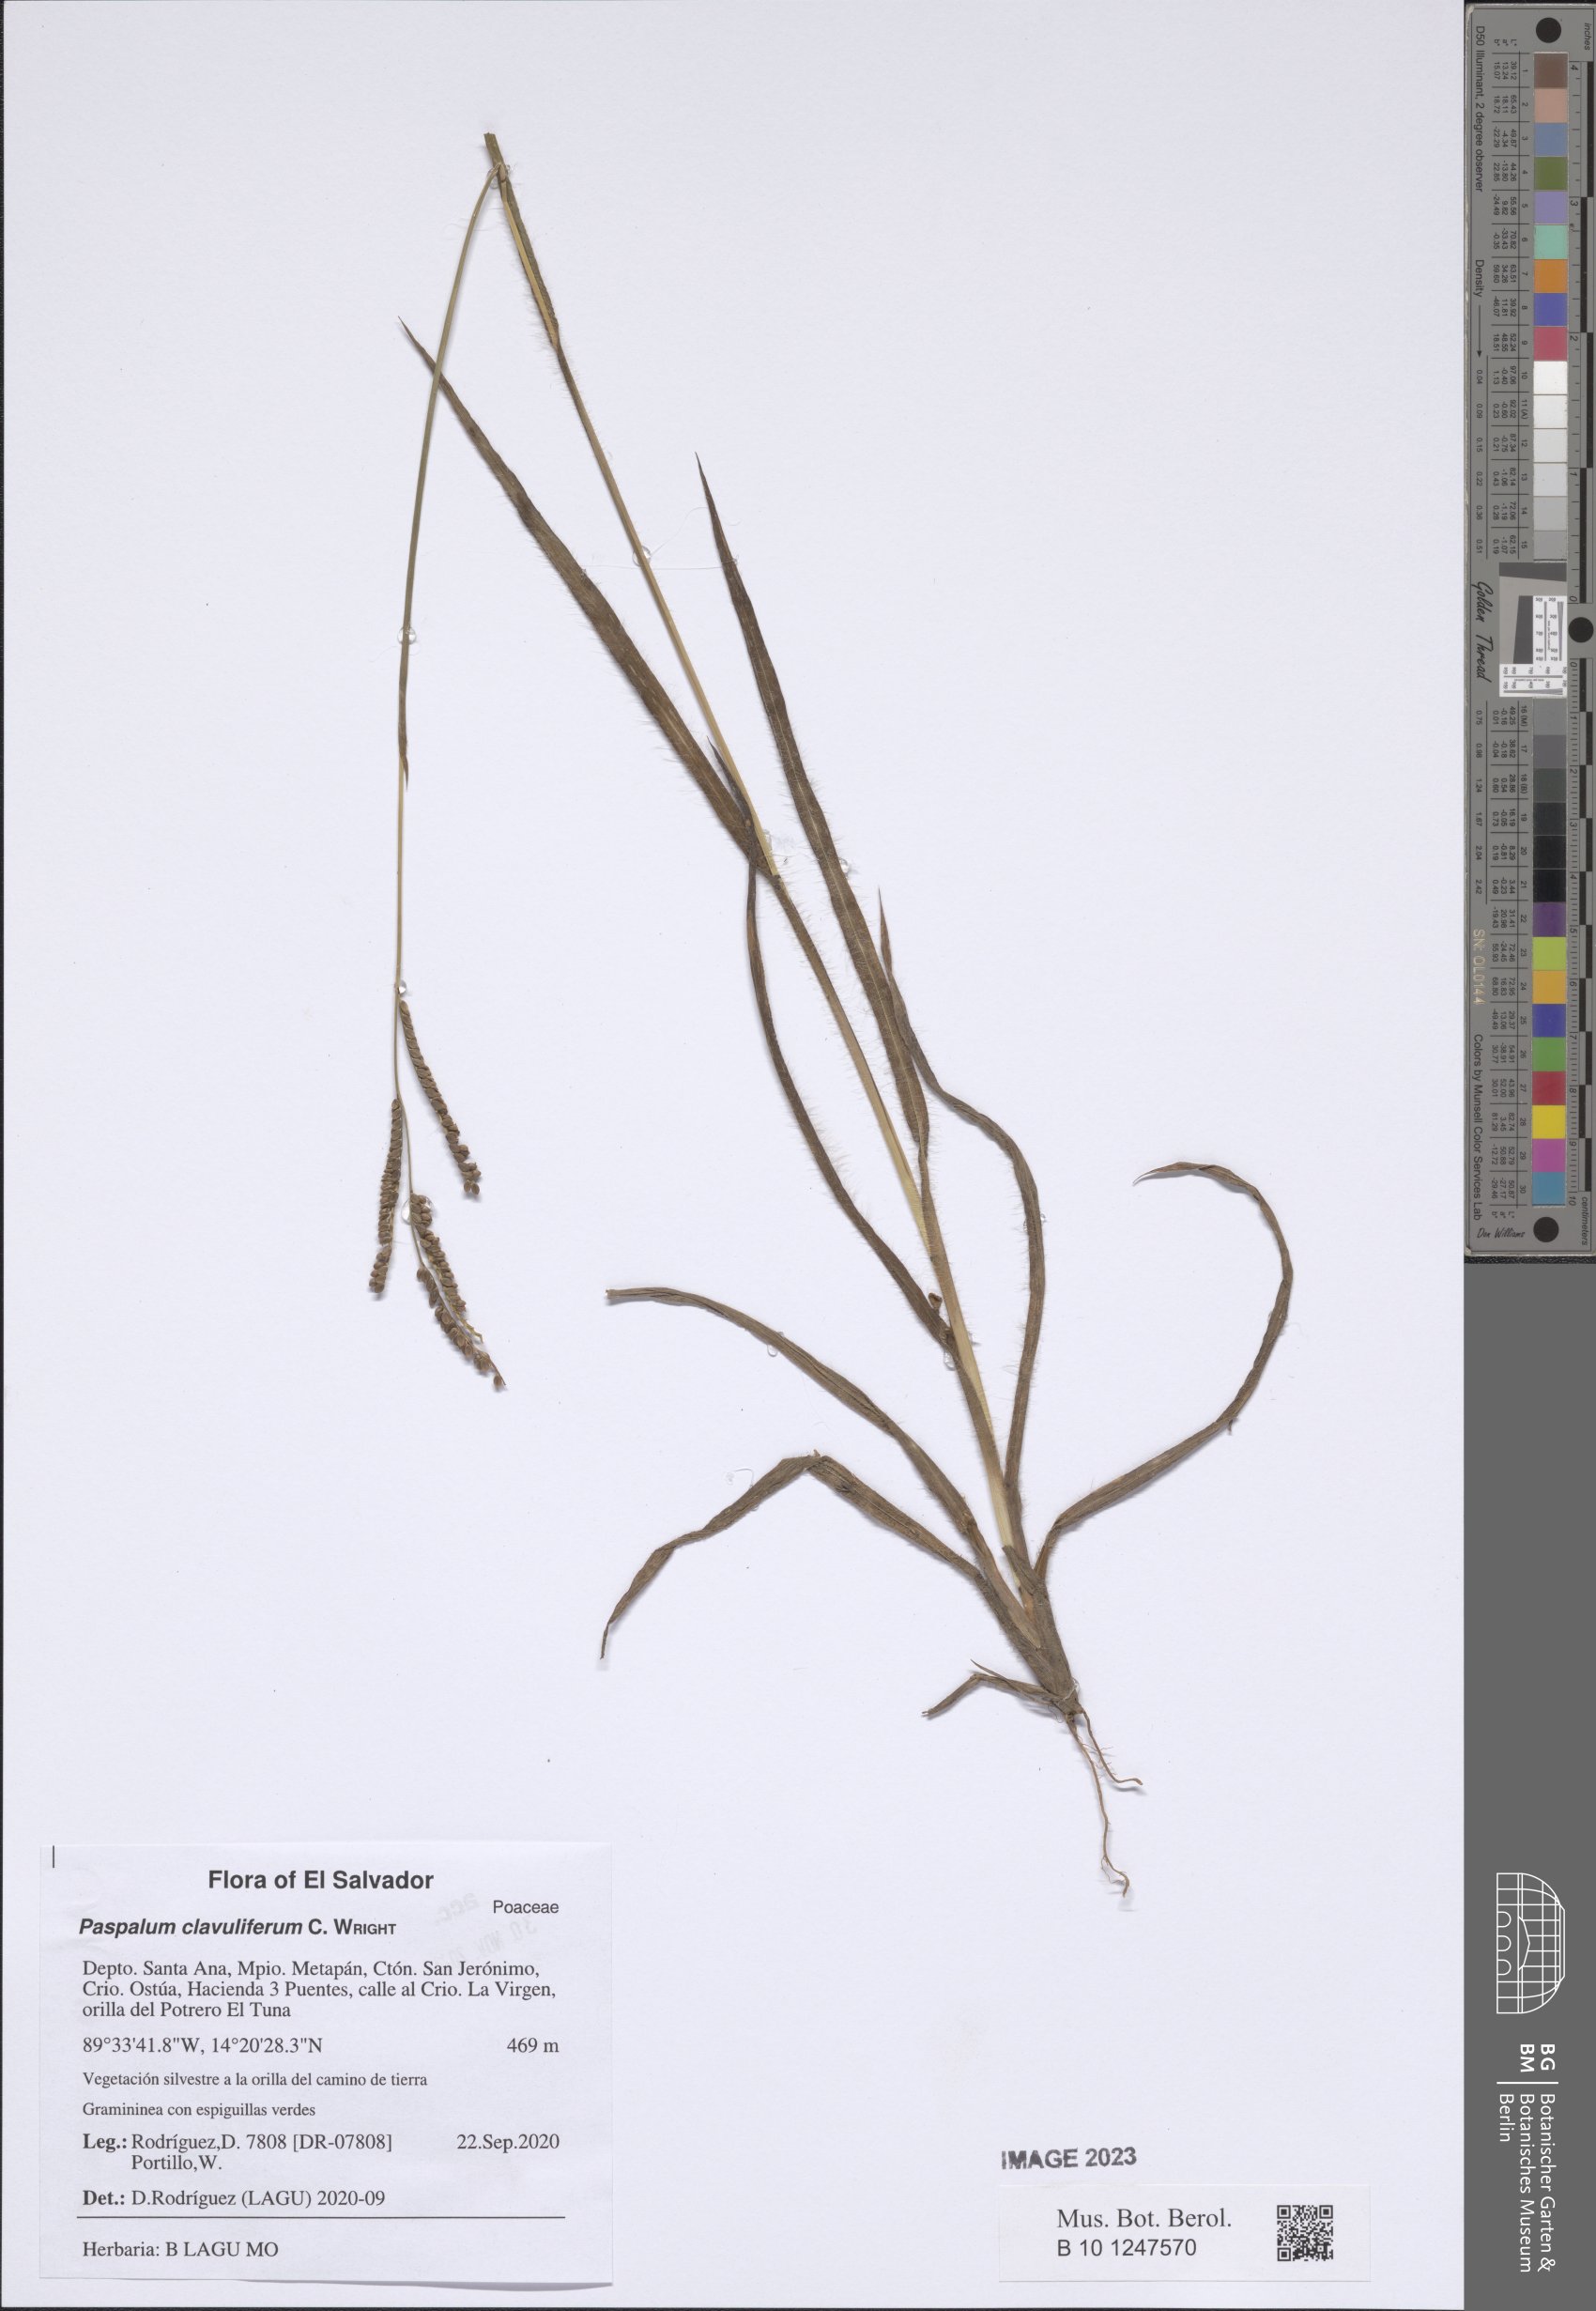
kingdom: Plantae
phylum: Tracheophyta
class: Liliopsida
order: Poales
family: Poaceae
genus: Paspalum
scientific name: Paspalum clavuliferum
